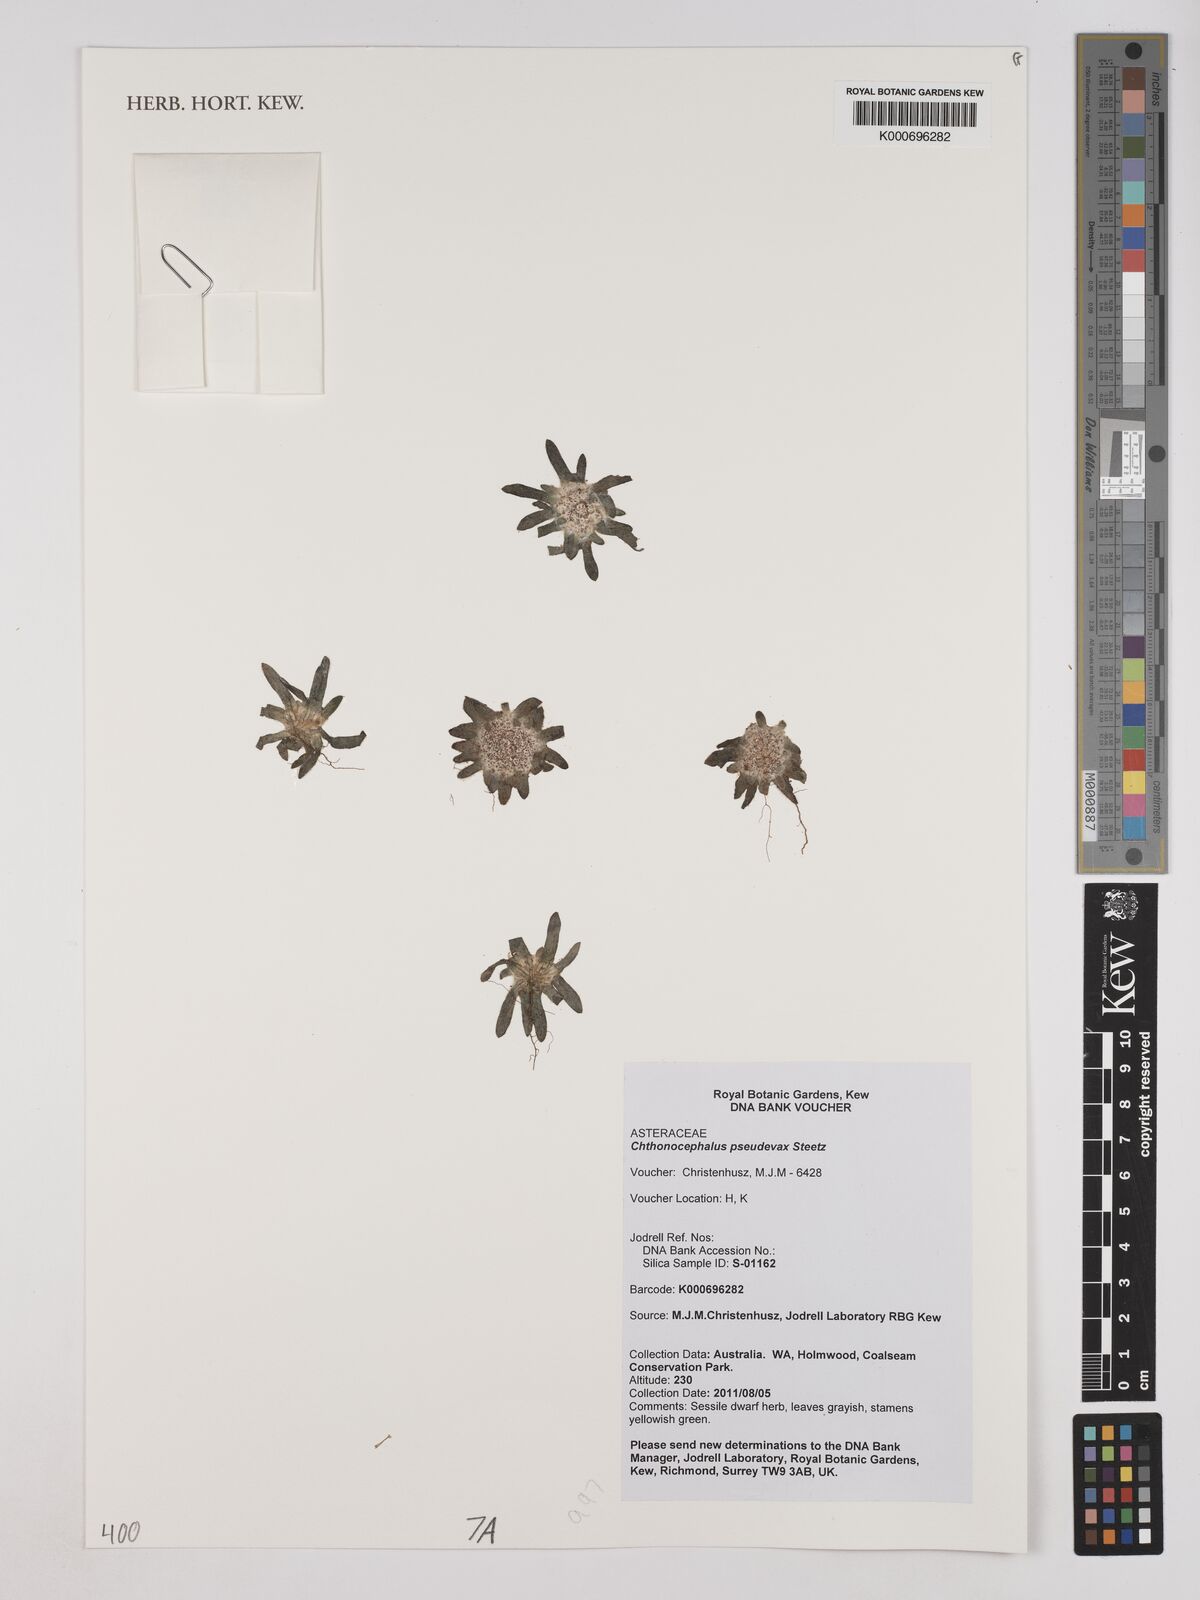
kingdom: Plantae
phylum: Tracheophyta
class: Magnoliopsida
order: Asterales
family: Asteraceae
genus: Chthonocephalus
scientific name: Chthonocephalus pseudevax
